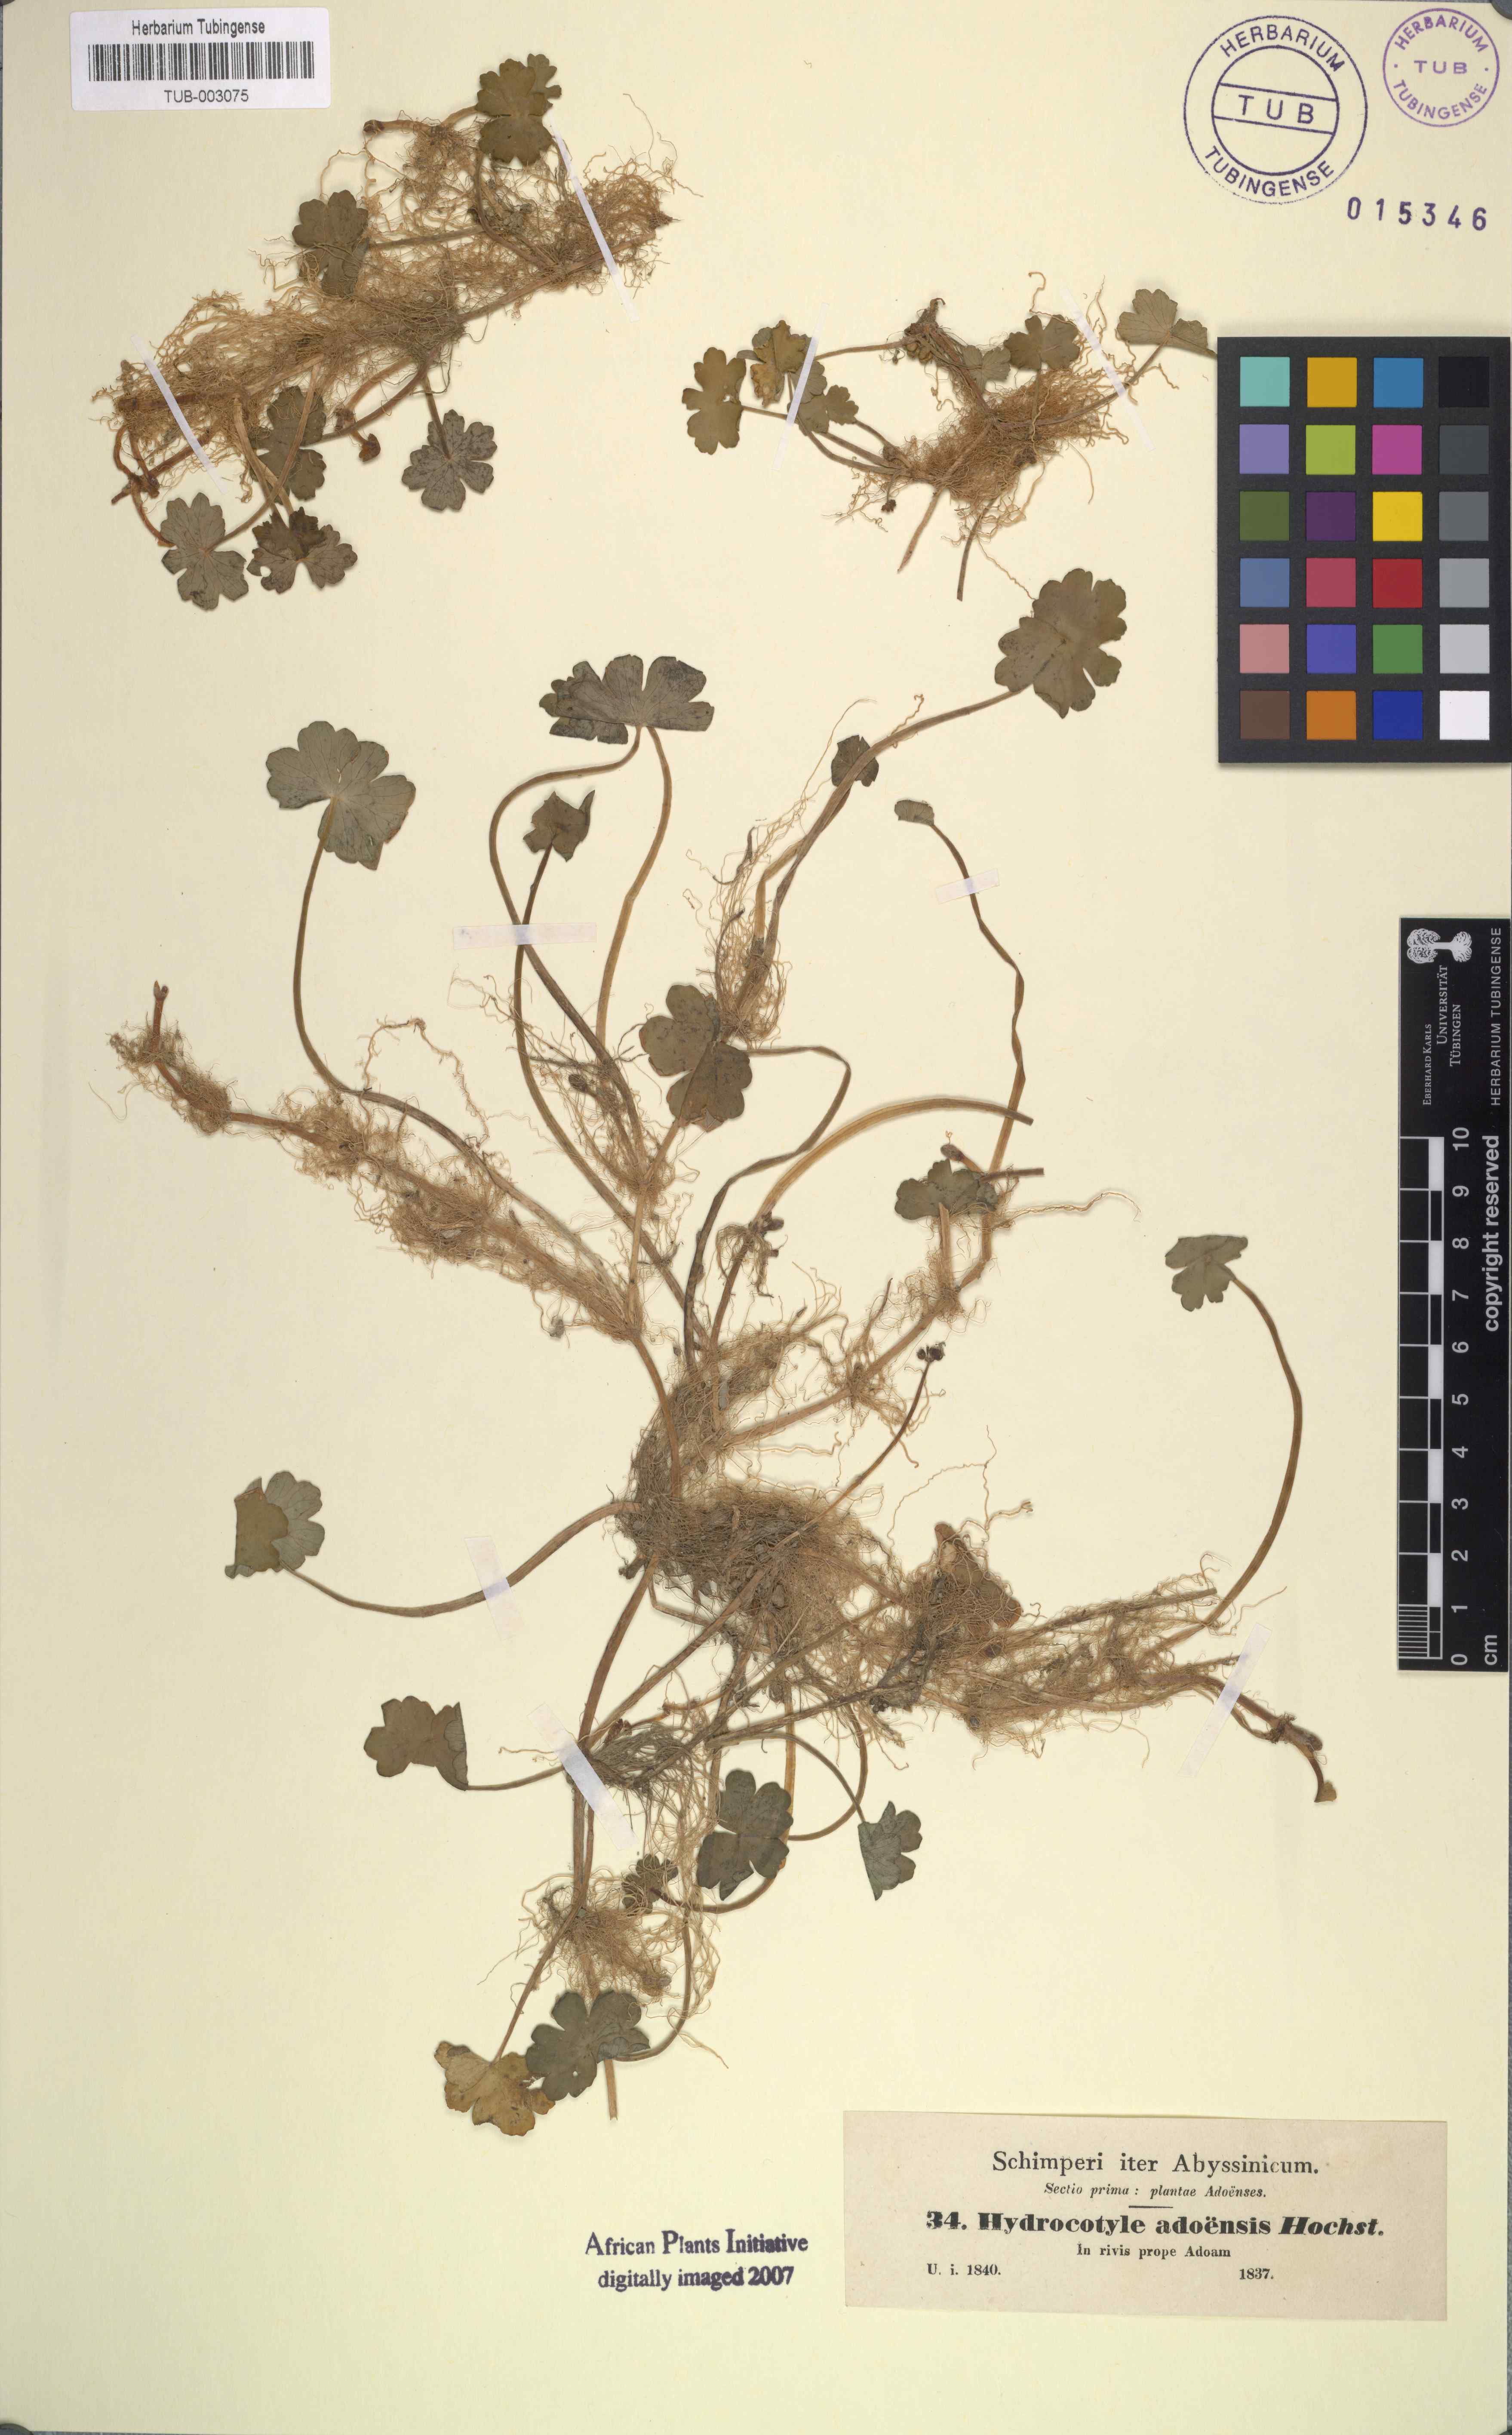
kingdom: Plantae
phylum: Tracheophyta
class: Magnoliopsida
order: Apiales
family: Araliaceae
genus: Hydrocotyle
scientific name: Hydrocotyle ranunculoides
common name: Floating pennywort
